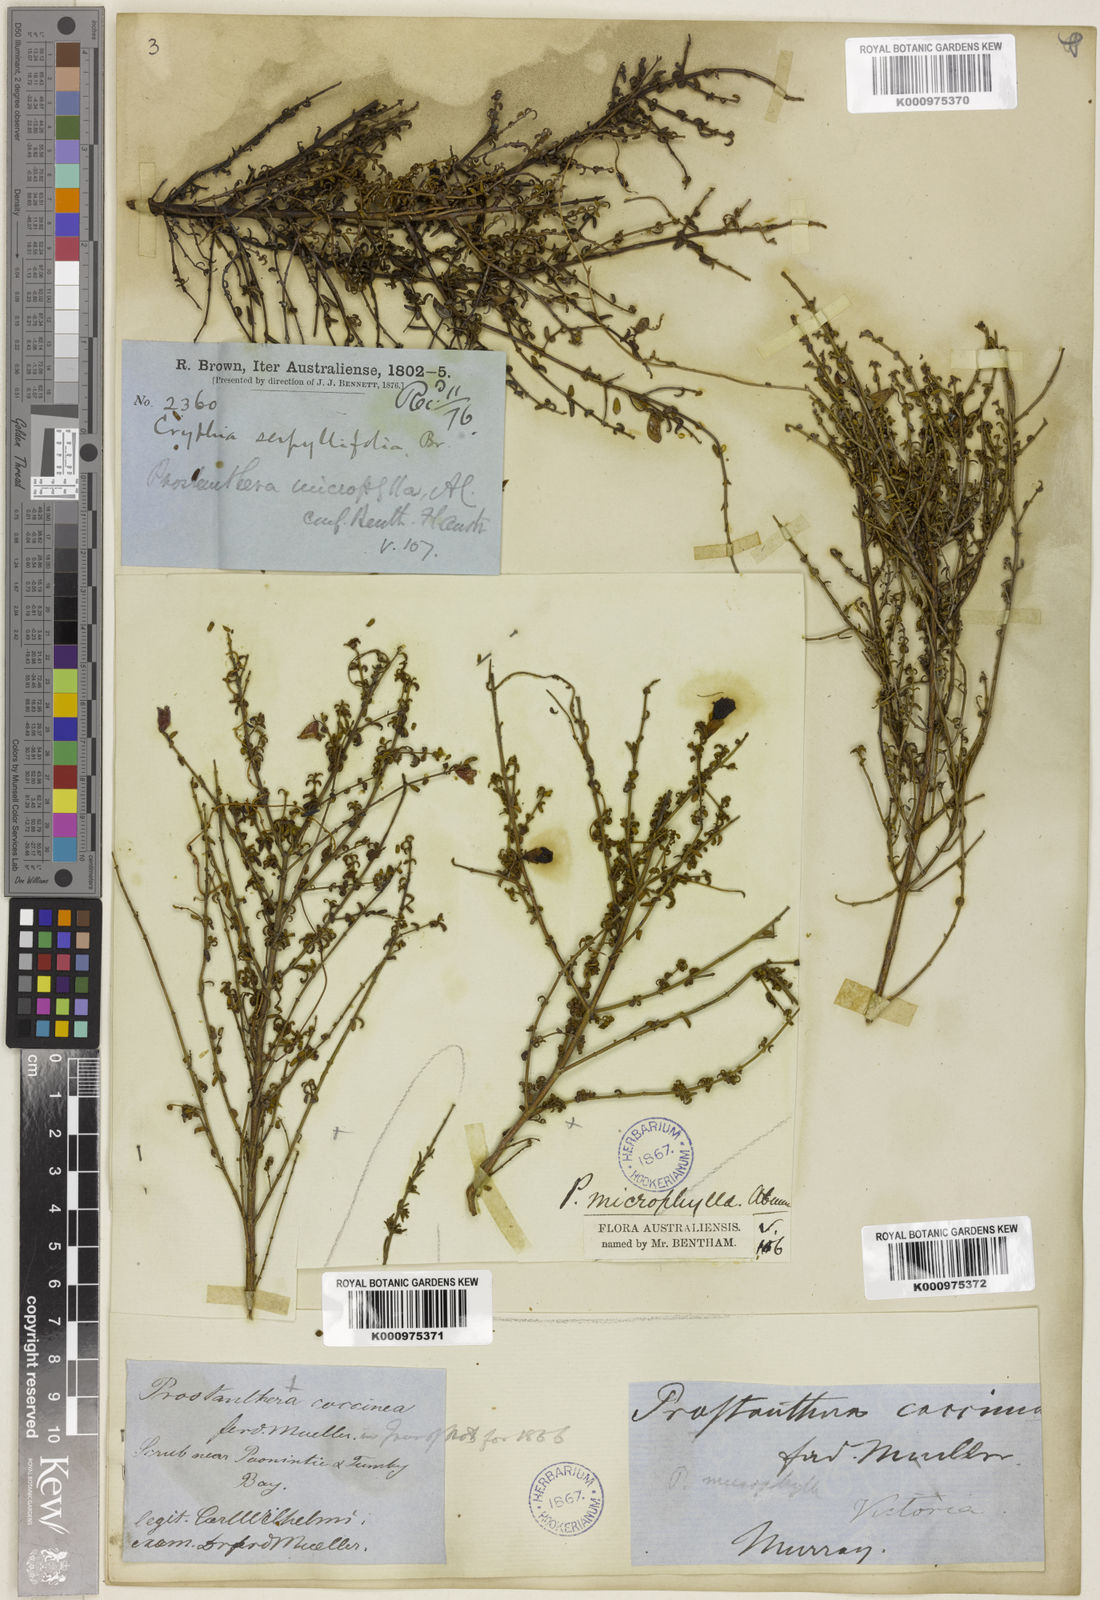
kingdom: Plantae
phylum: Tracheophyta
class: Magnoliopsida
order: Lamiales
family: Lamiaceae
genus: Prostanthera
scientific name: Prostanthera microphylla
